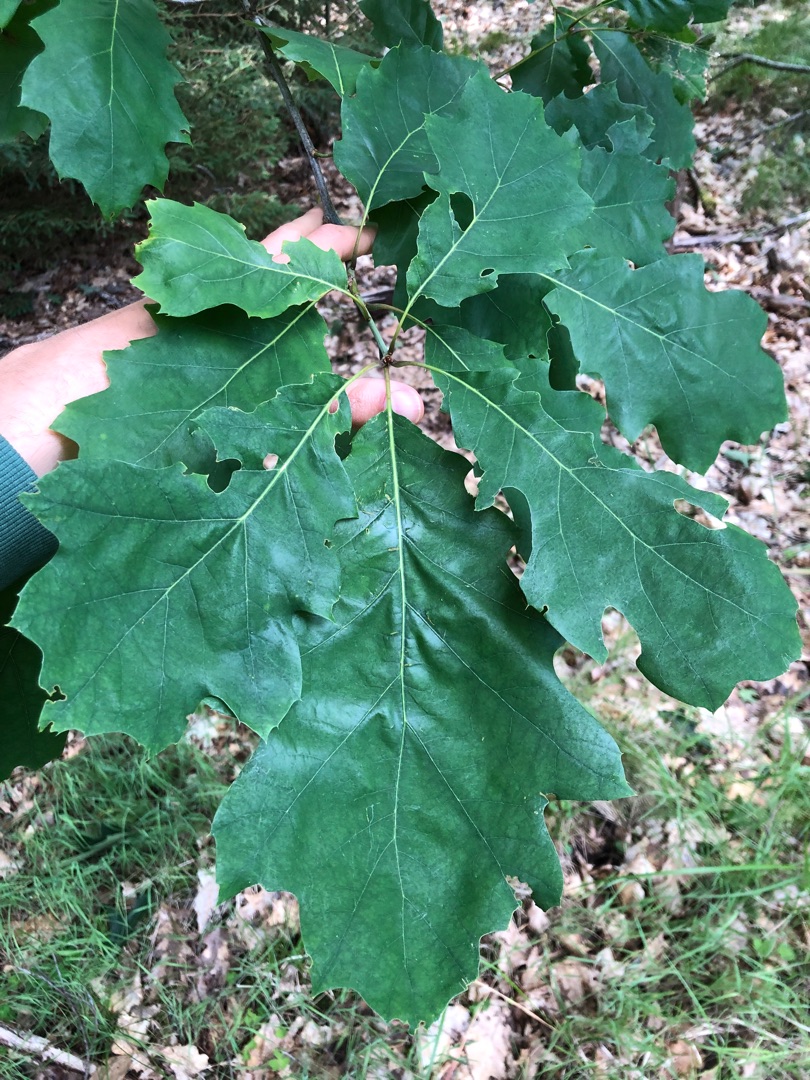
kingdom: Plantae
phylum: Tracheophyta
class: Magnoliopsida
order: Fagales
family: Fagaceae
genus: Quercus
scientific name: Quercus rubra
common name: Rød-eg
